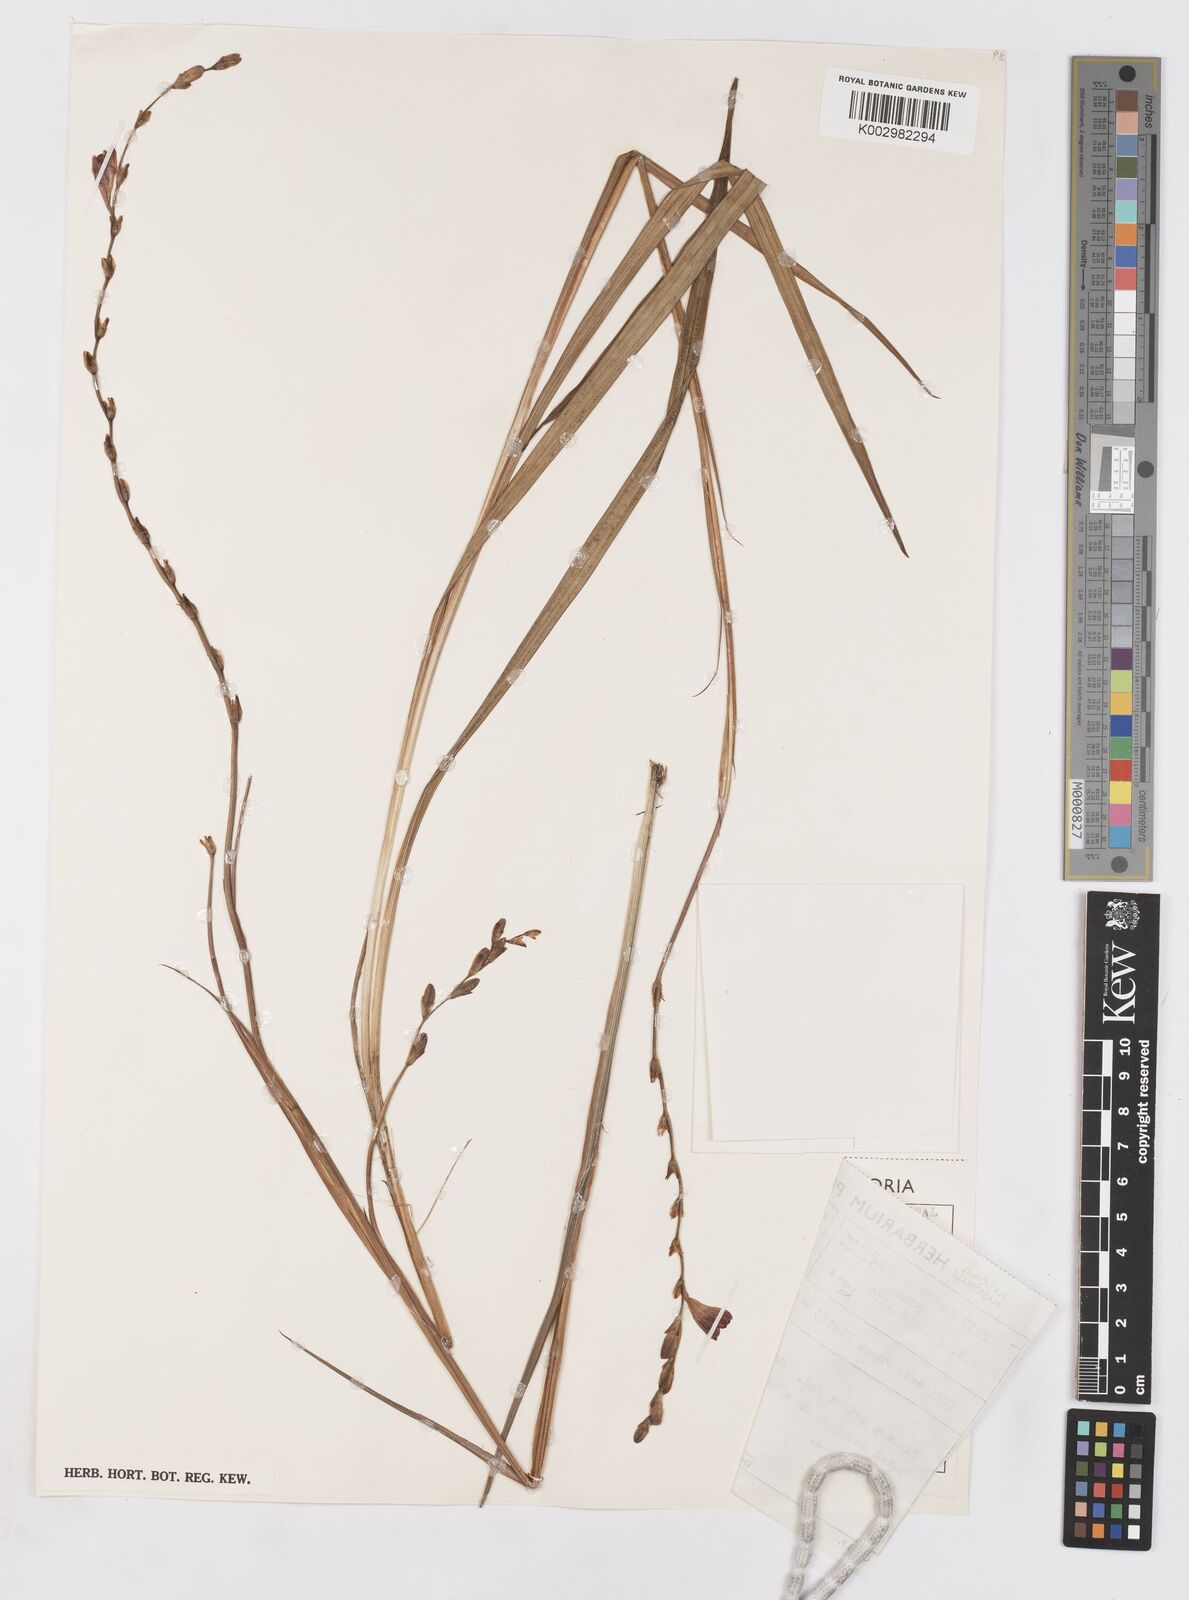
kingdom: Plantae
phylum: Tracheophyta
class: Liliopsida
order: Asparagales
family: Iridaceae
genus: Tritonia
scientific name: Tritonia disticha
